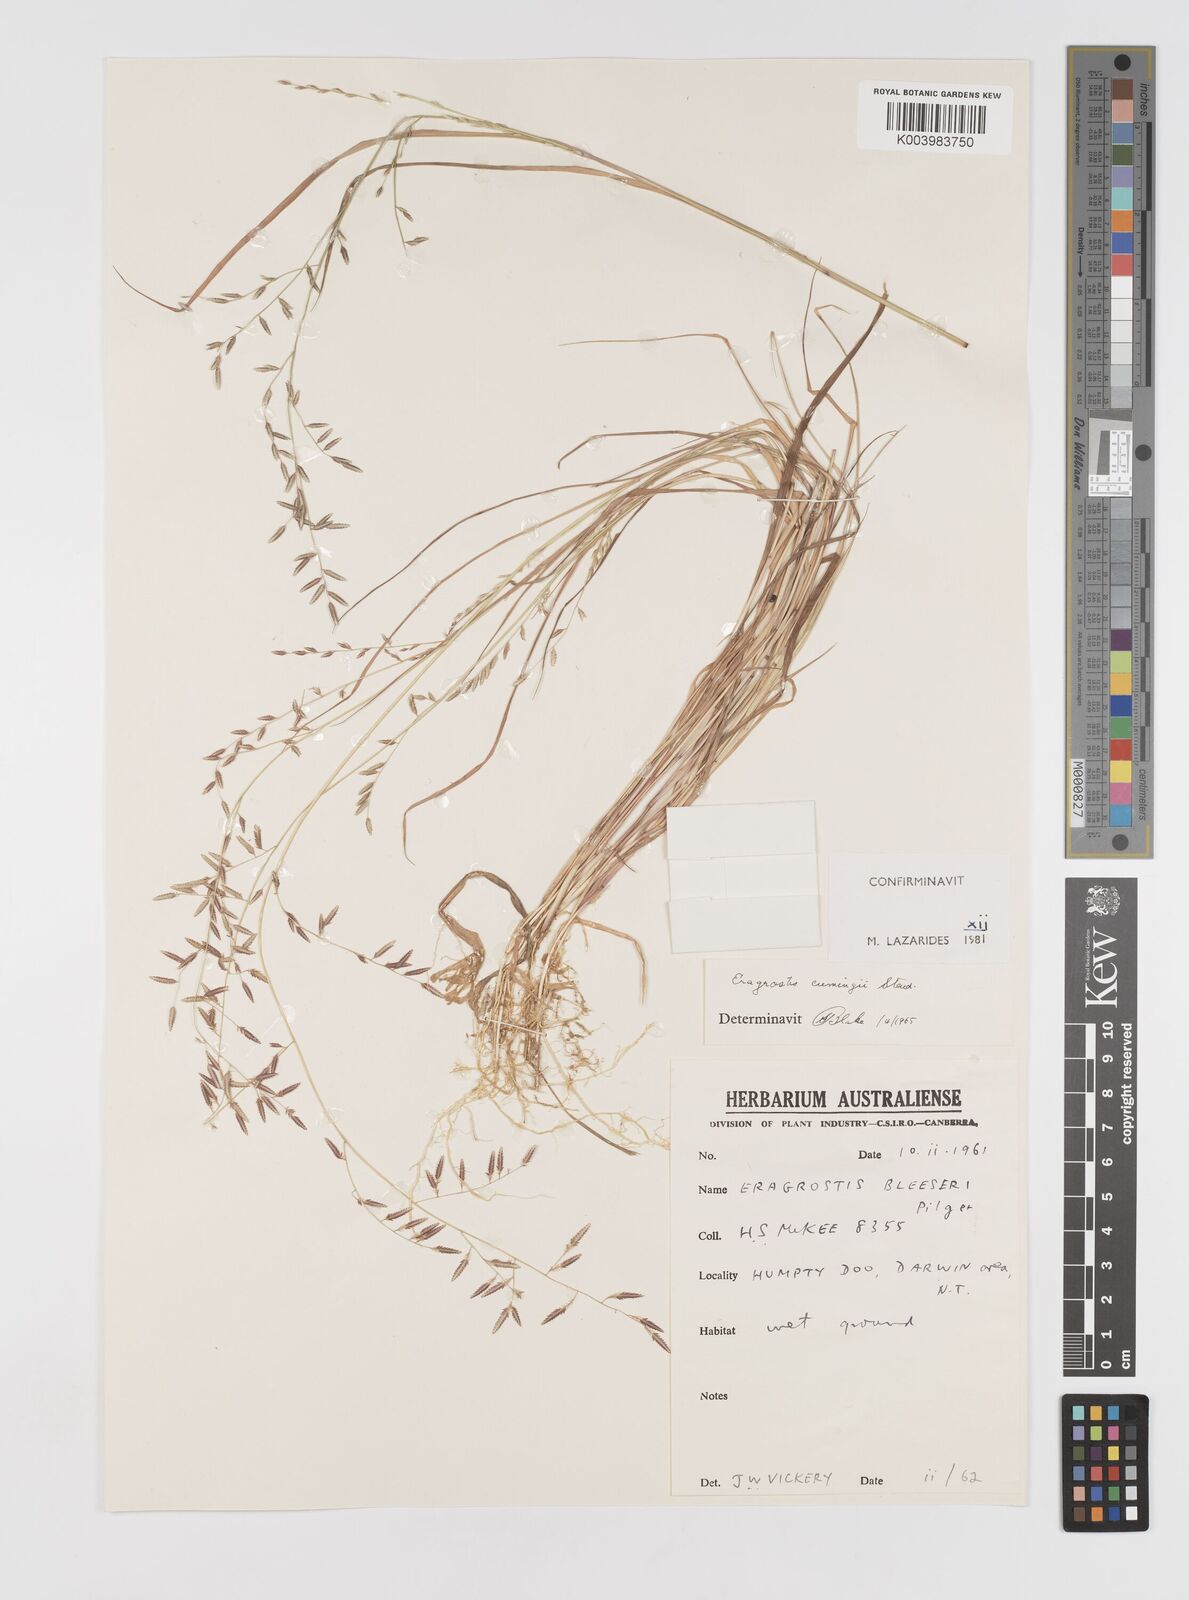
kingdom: Plantae
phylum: Tracheophyta
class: Liliopsida
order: Poales
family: Poaceae
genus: Eragrostis
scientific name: Eragrostis cumingii
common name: Cuming's lovegrass
